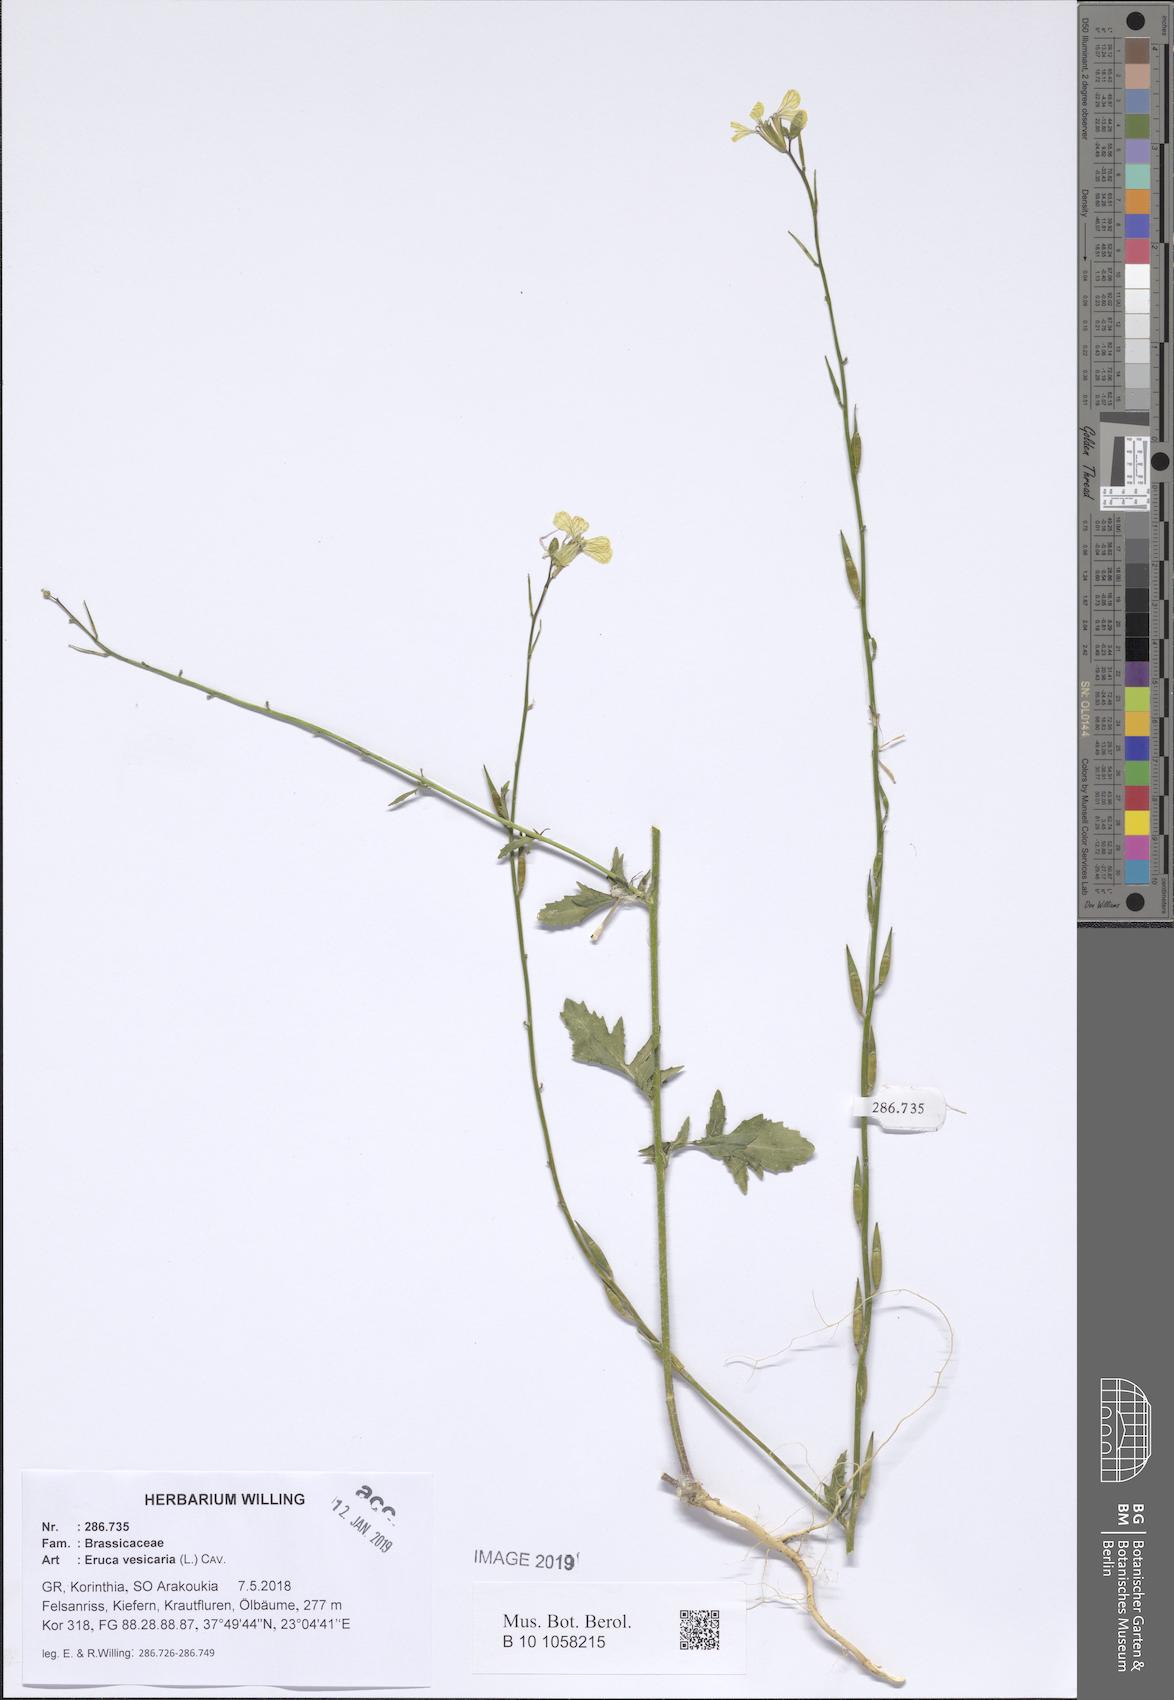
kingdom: Plantae
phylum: Tracheophyta
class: Magnoliopsida
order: Brassicales
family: Brassicaceae
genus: Eruca
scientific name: Eruca vesicaria
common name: Garden rocket
